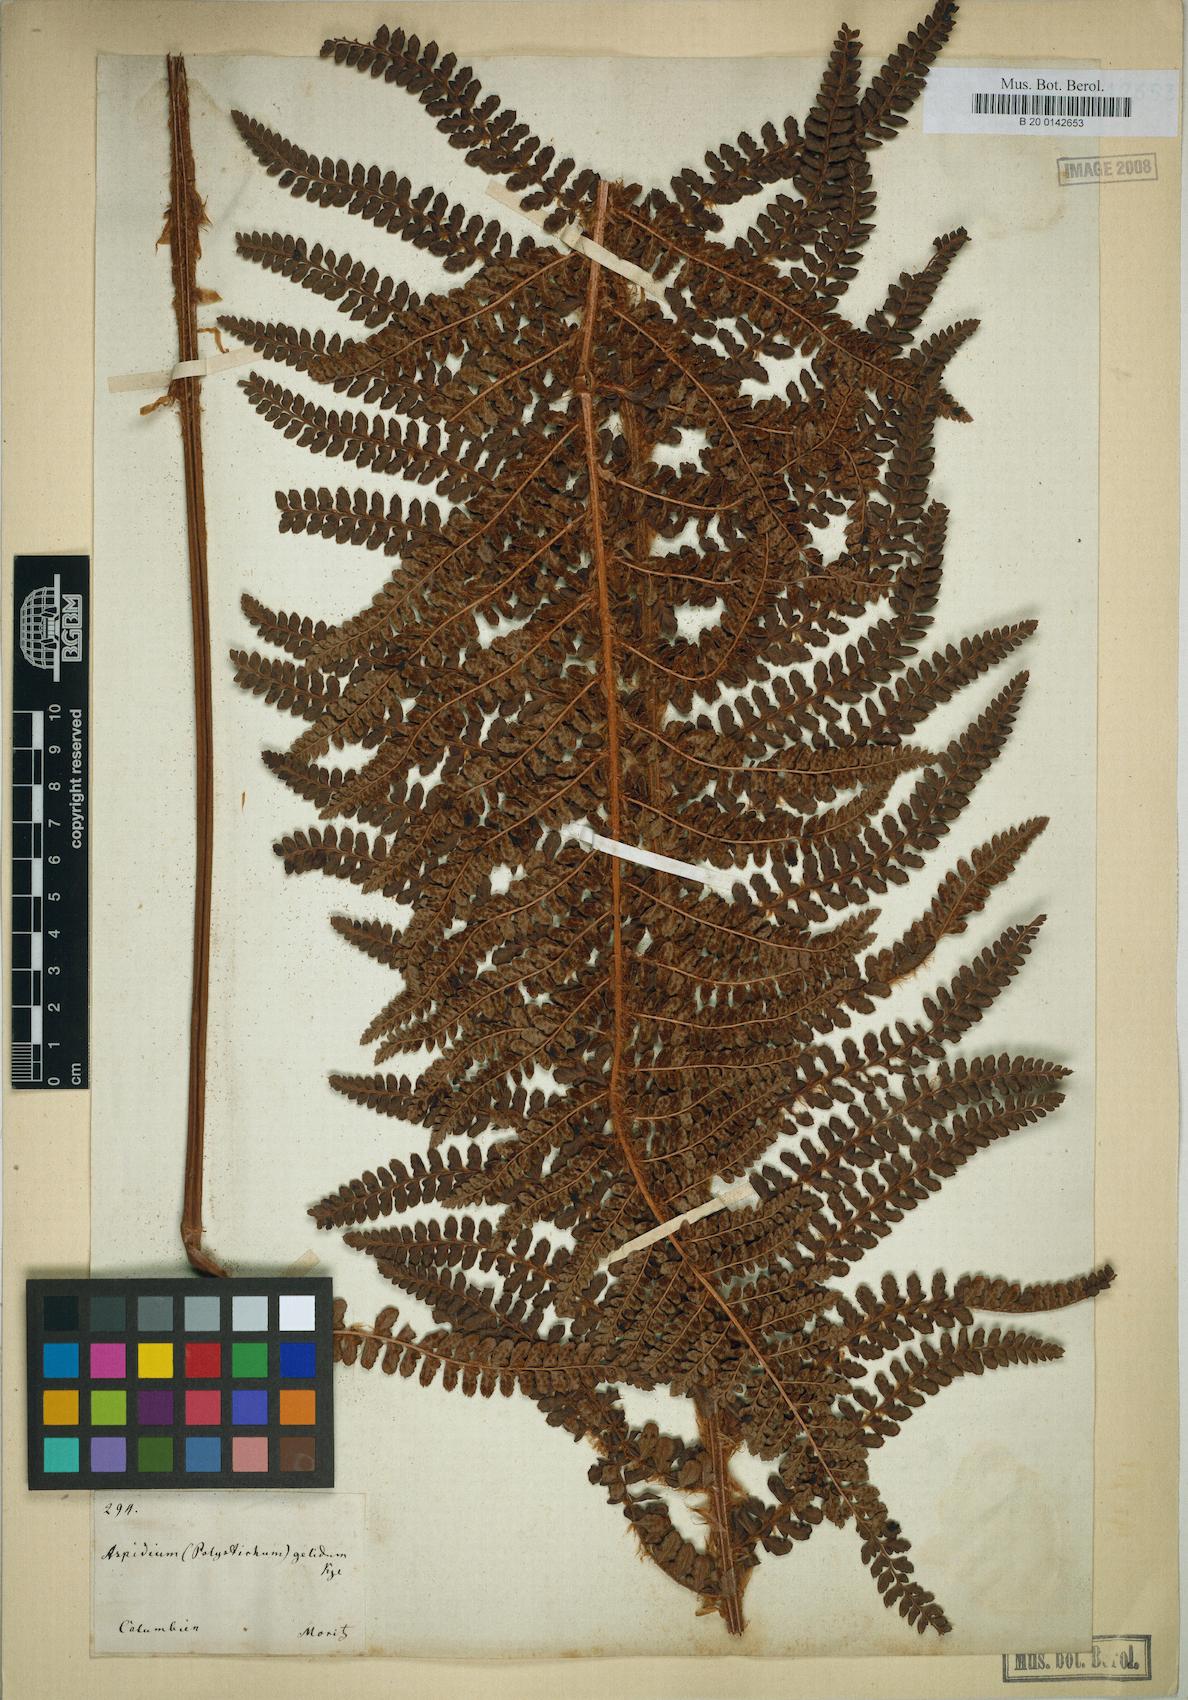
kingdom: Plantae
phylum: Tracheophyta
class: Polypodiopsida
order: Polypodiales
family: Dryopteridaceae
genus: Polystichum
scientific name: Polystichum pycnolepis
